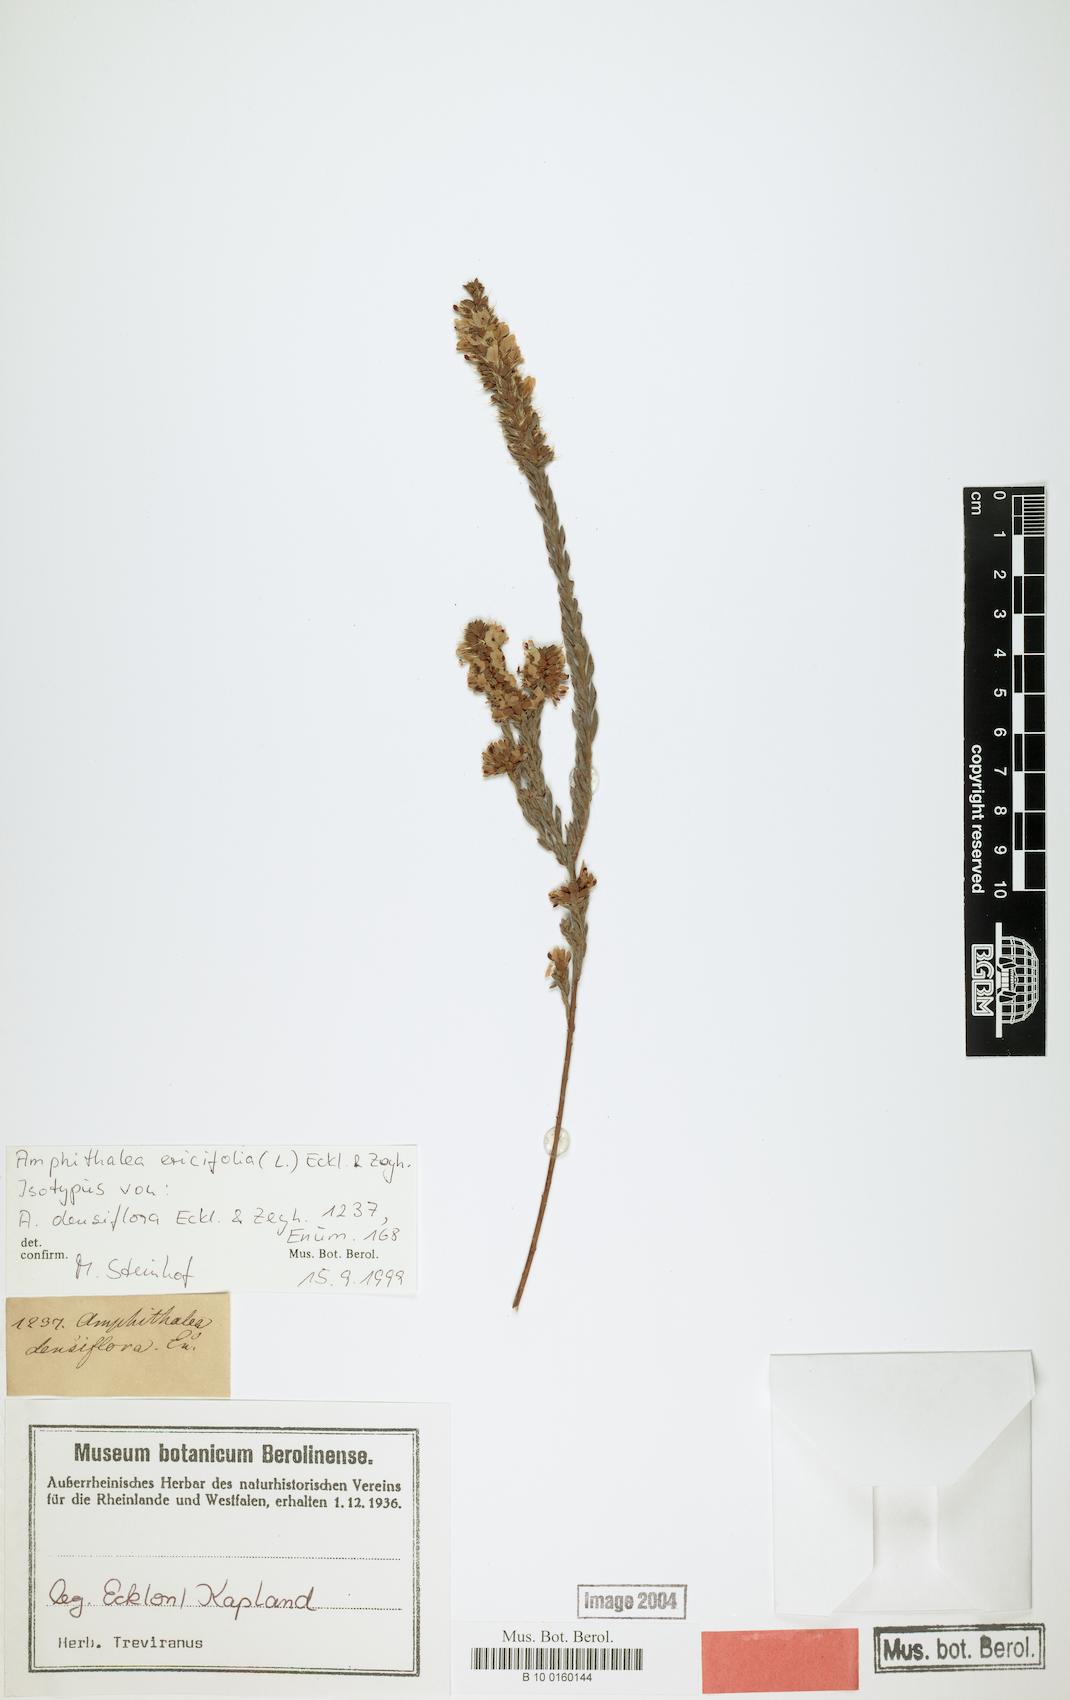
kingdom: Plantae
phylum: Tracheophyta
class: Magnoliopsida
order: Fabales
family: Fabaceae
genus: Amphithalea
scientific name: Amphithalea ericifolia
